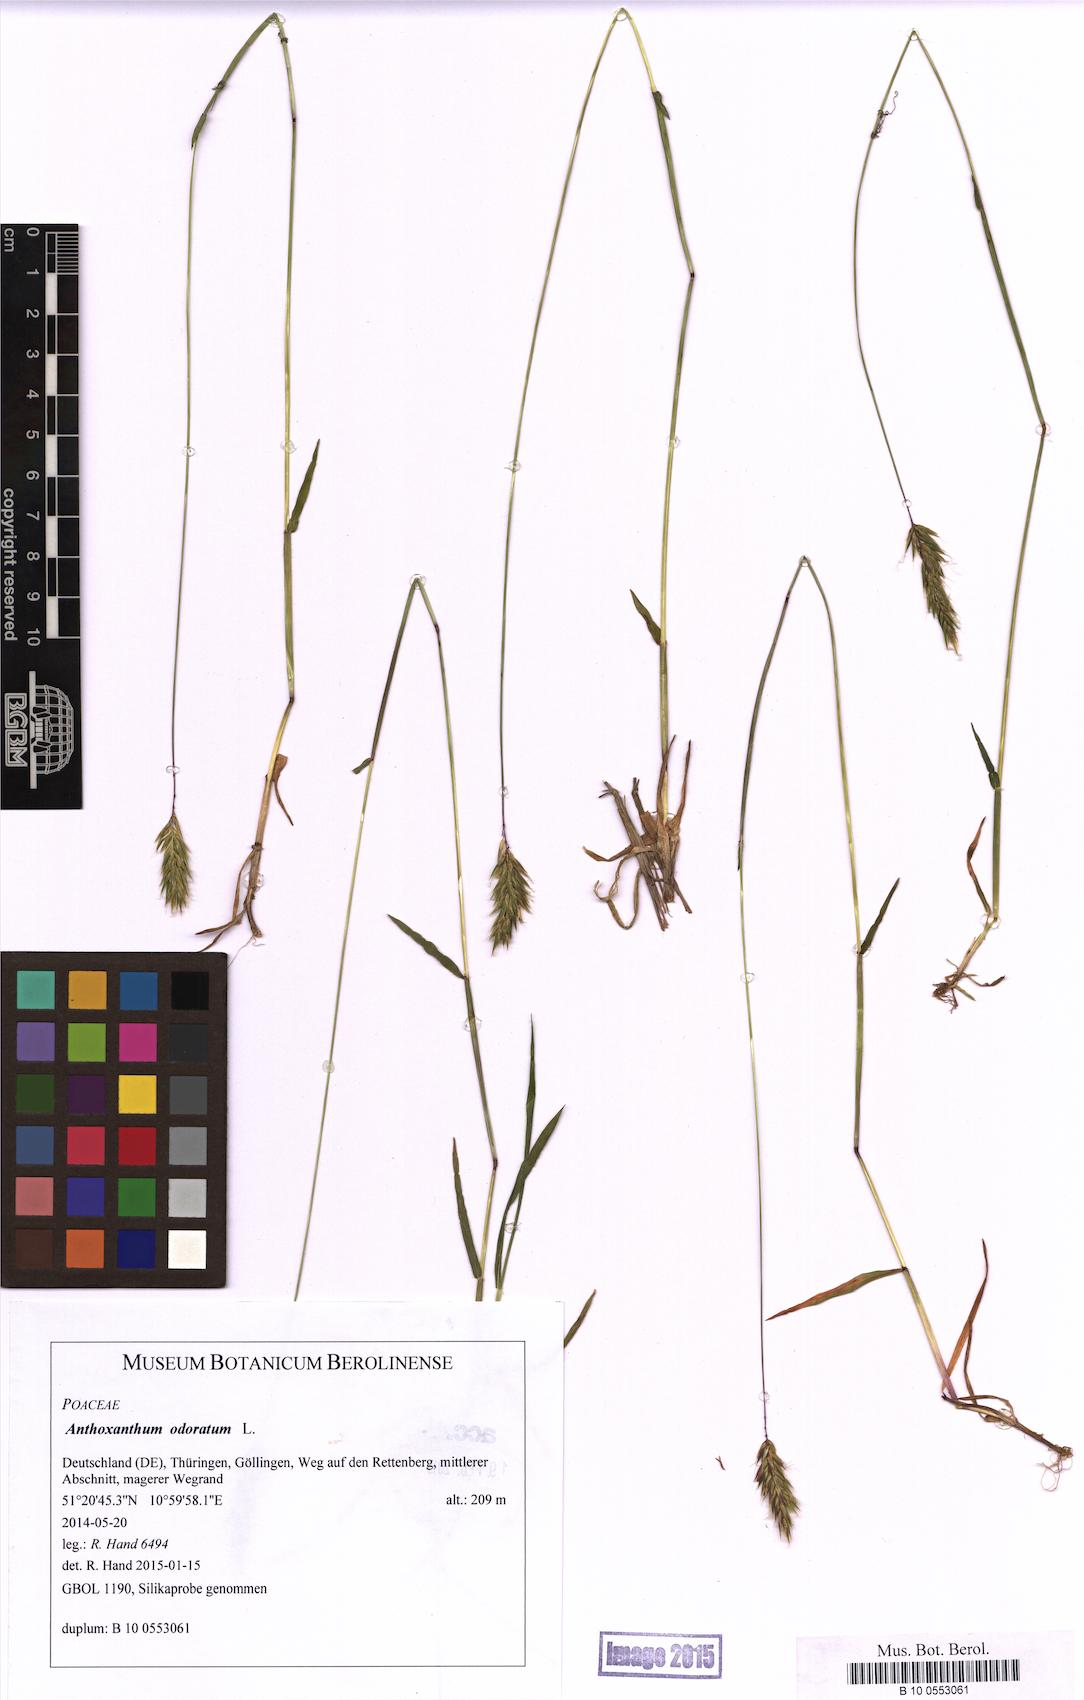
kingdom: Plantae
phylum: Tracheophyta
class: Liliopsida
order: Poales
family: Poaceae
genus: Anthoxanthum
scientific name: Anthoxanthum odoratum
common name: Sweet vernalgrass
